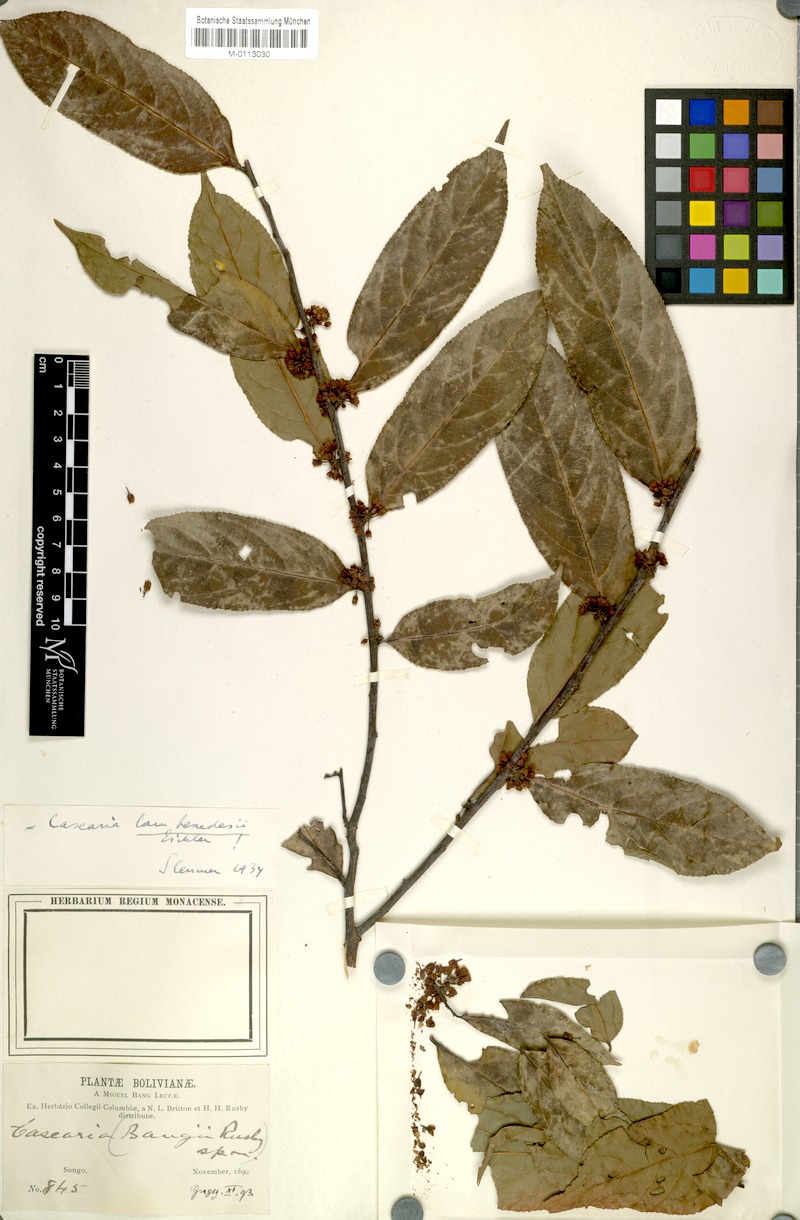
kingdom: Plantae
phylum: Tracheophyta
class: Magnoliopsida
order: Malpighiales
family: Salicaceae
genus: Casearia
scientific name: Casearia arborea
